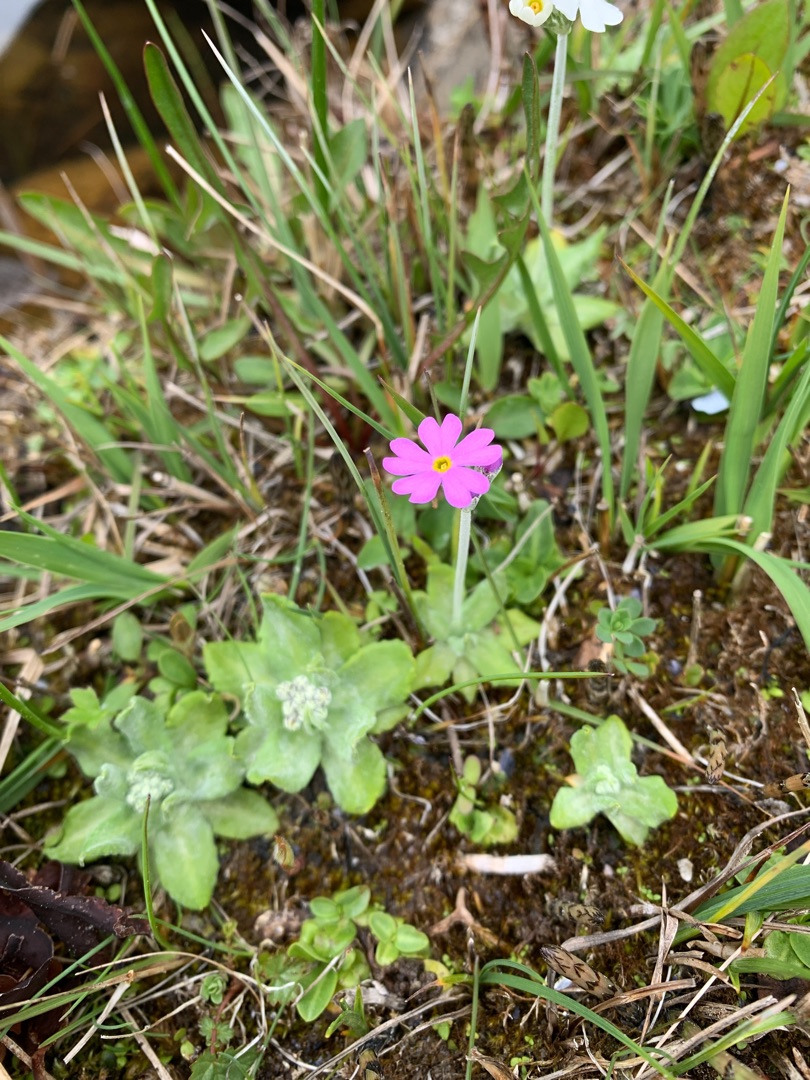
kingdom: Plantae
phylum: Tracheophyta
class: Magnoliopsida
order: Ericales
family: Primulaceae
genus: Primula
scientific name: Primula farinosa
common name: Melet kodriver
